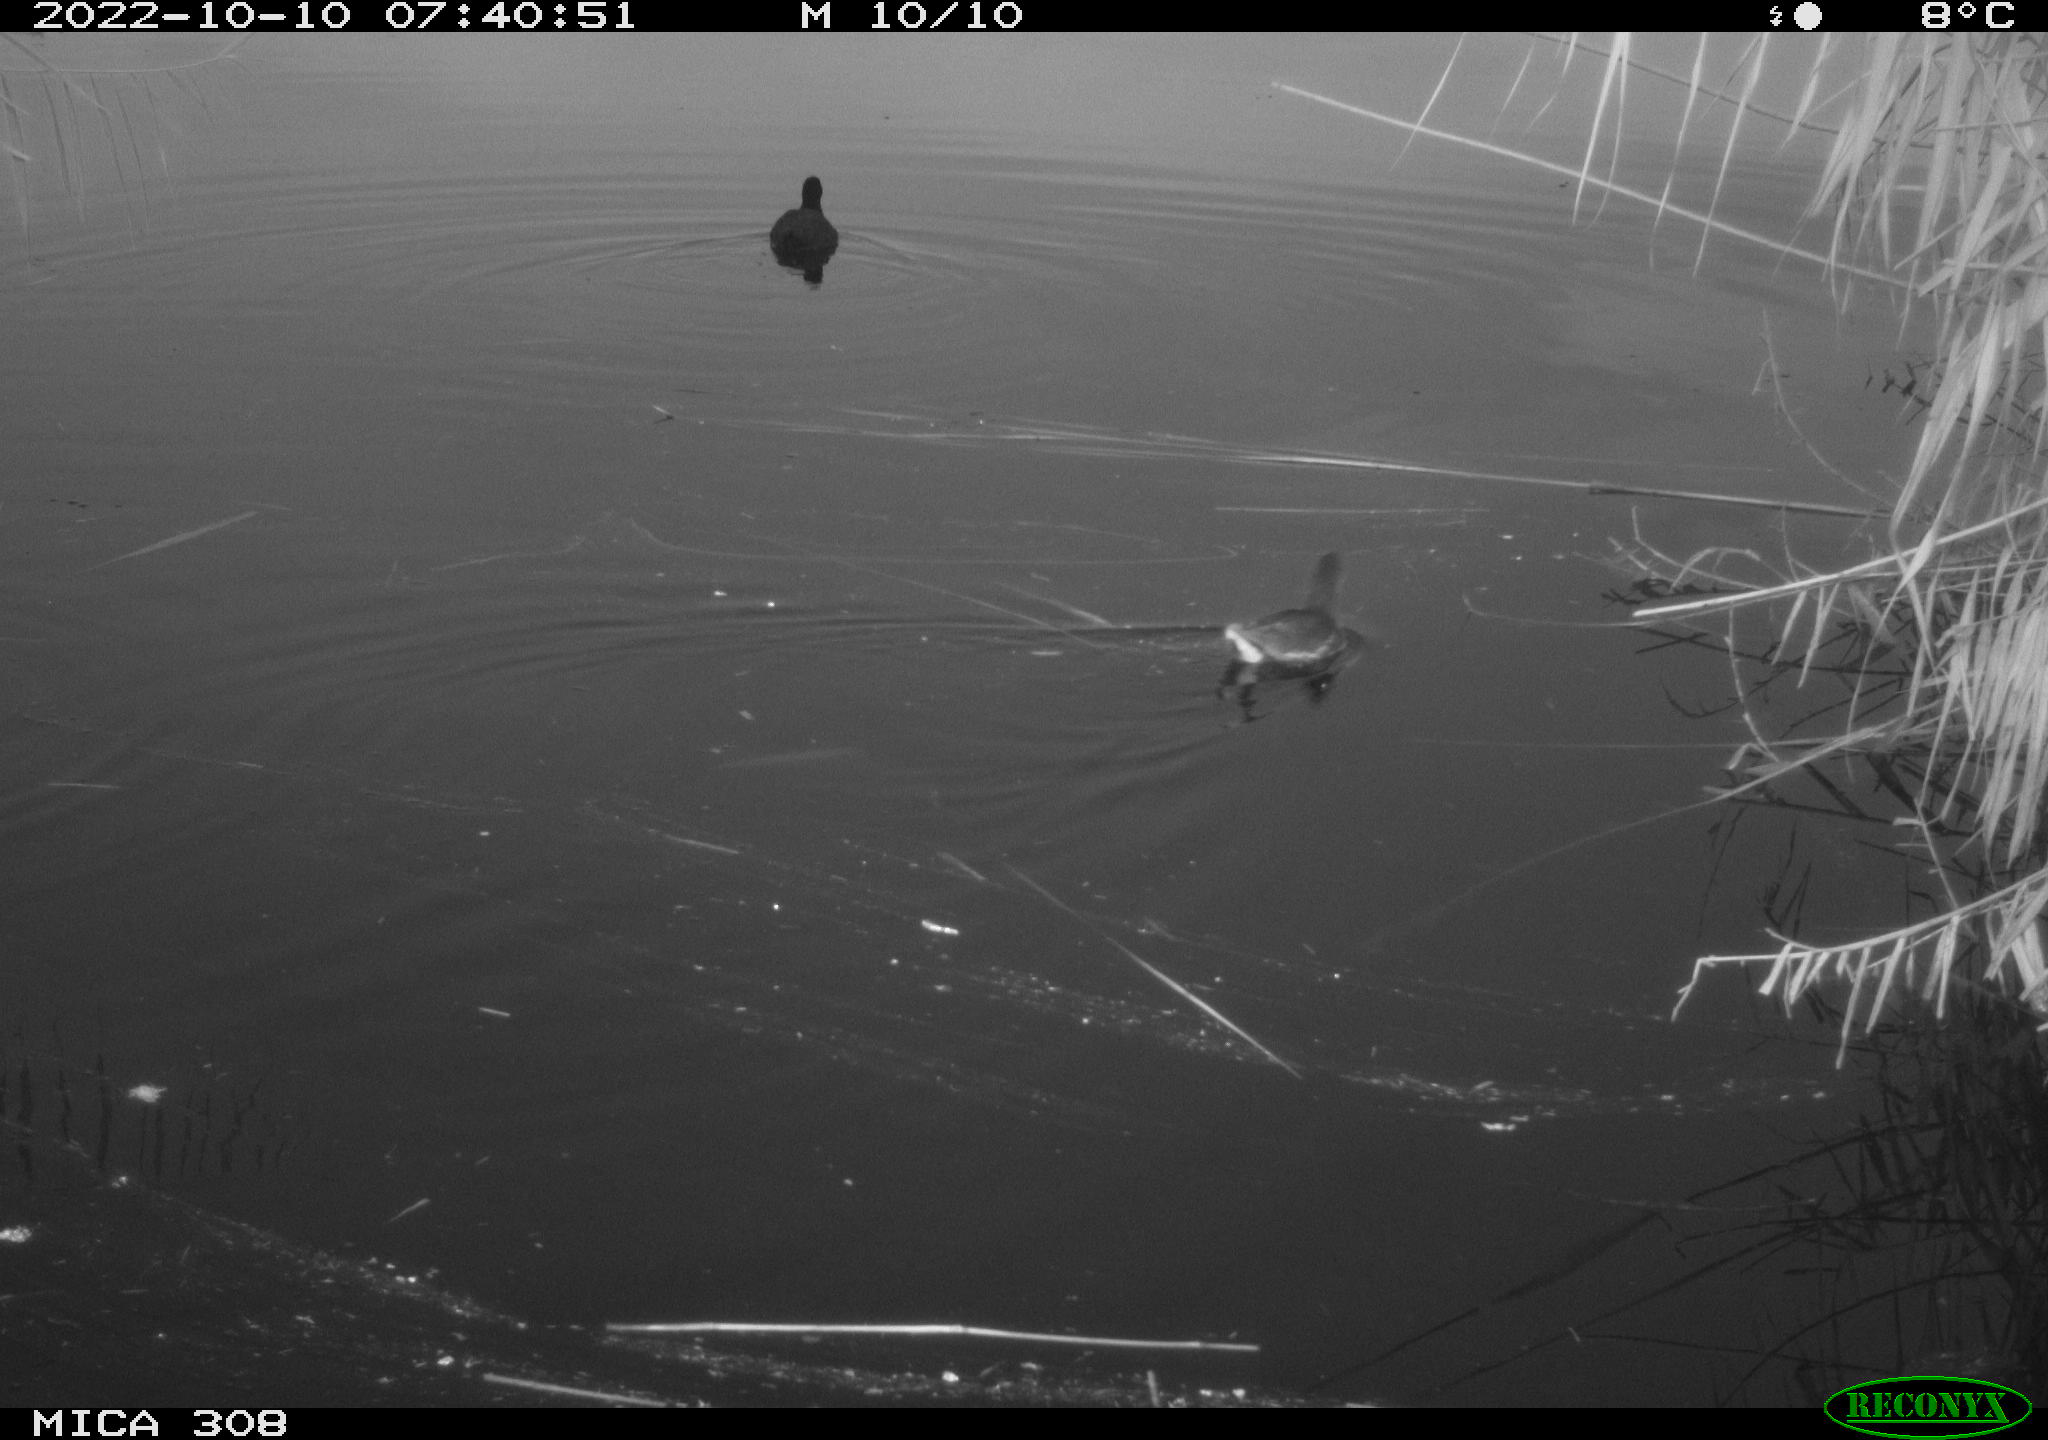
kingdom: Animalia
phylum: Chordata
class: Aves
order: Gruiformes
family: Rallidae
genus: Gallinula
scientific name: Gallinula chloropus
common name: Common moorhen
